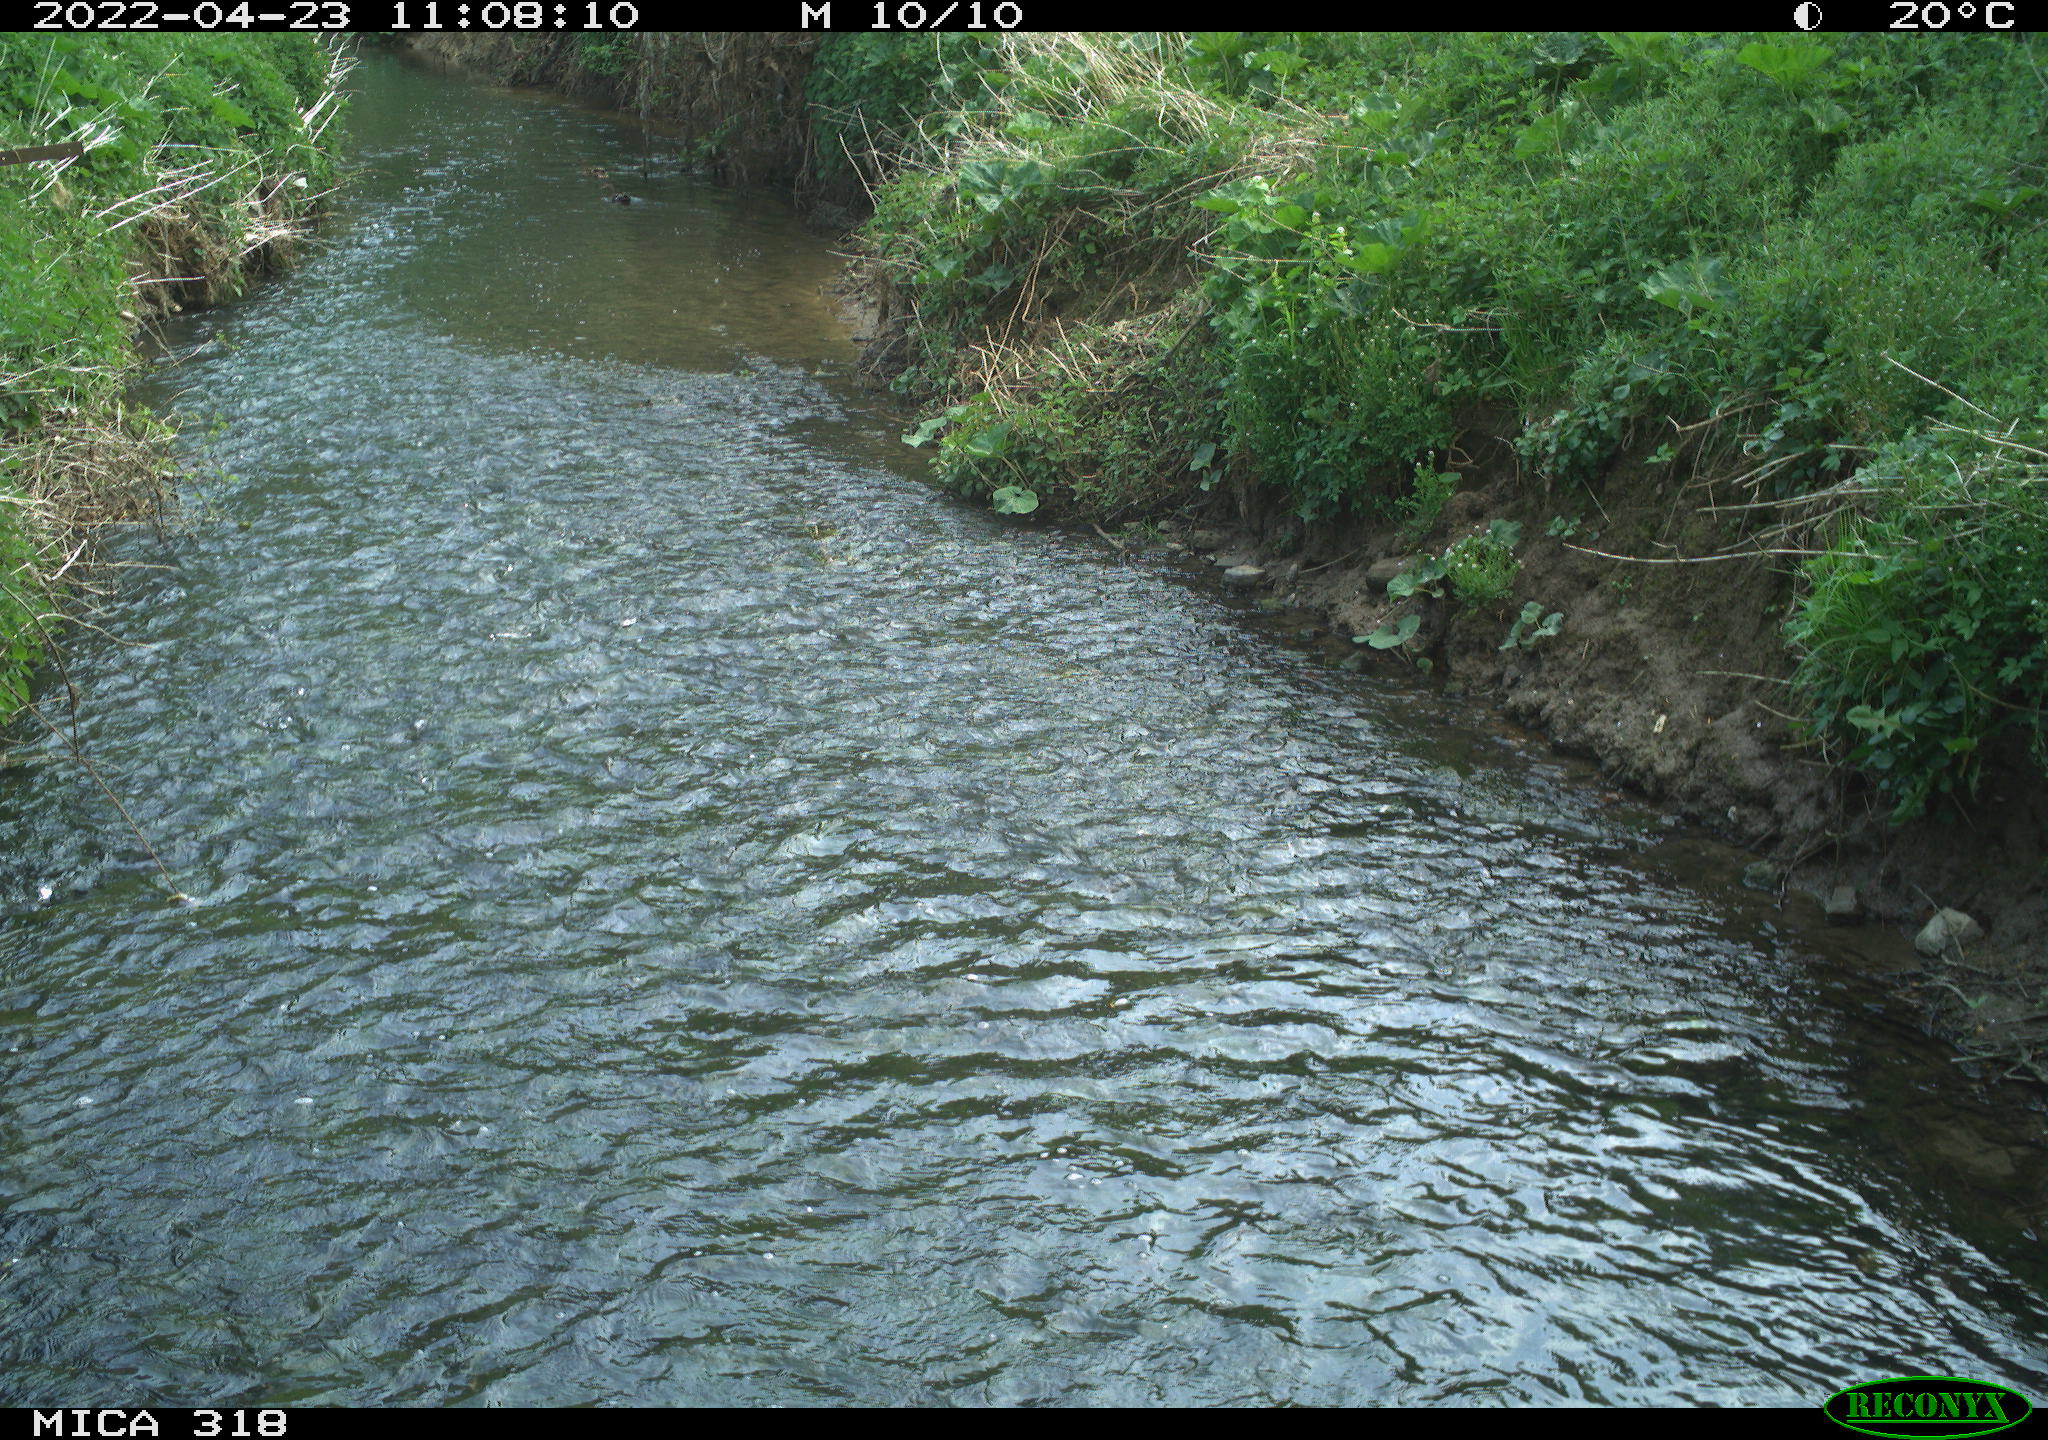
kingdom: Animalia
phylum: Chordata
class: Aves
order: Anseriformes
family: Anatidae
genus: Anas
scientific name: Anas platyrhynchos
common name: Mallard
